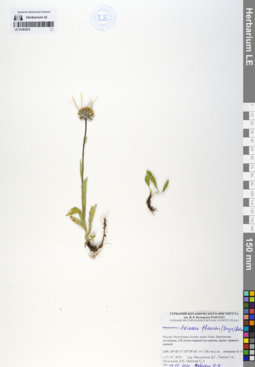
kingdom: Plantae
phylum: Tracheophyta
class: Magnoliopsida
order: Asterales
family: Asteraceae
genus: Tibetiodes
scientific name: Tibetiodes flaccida
